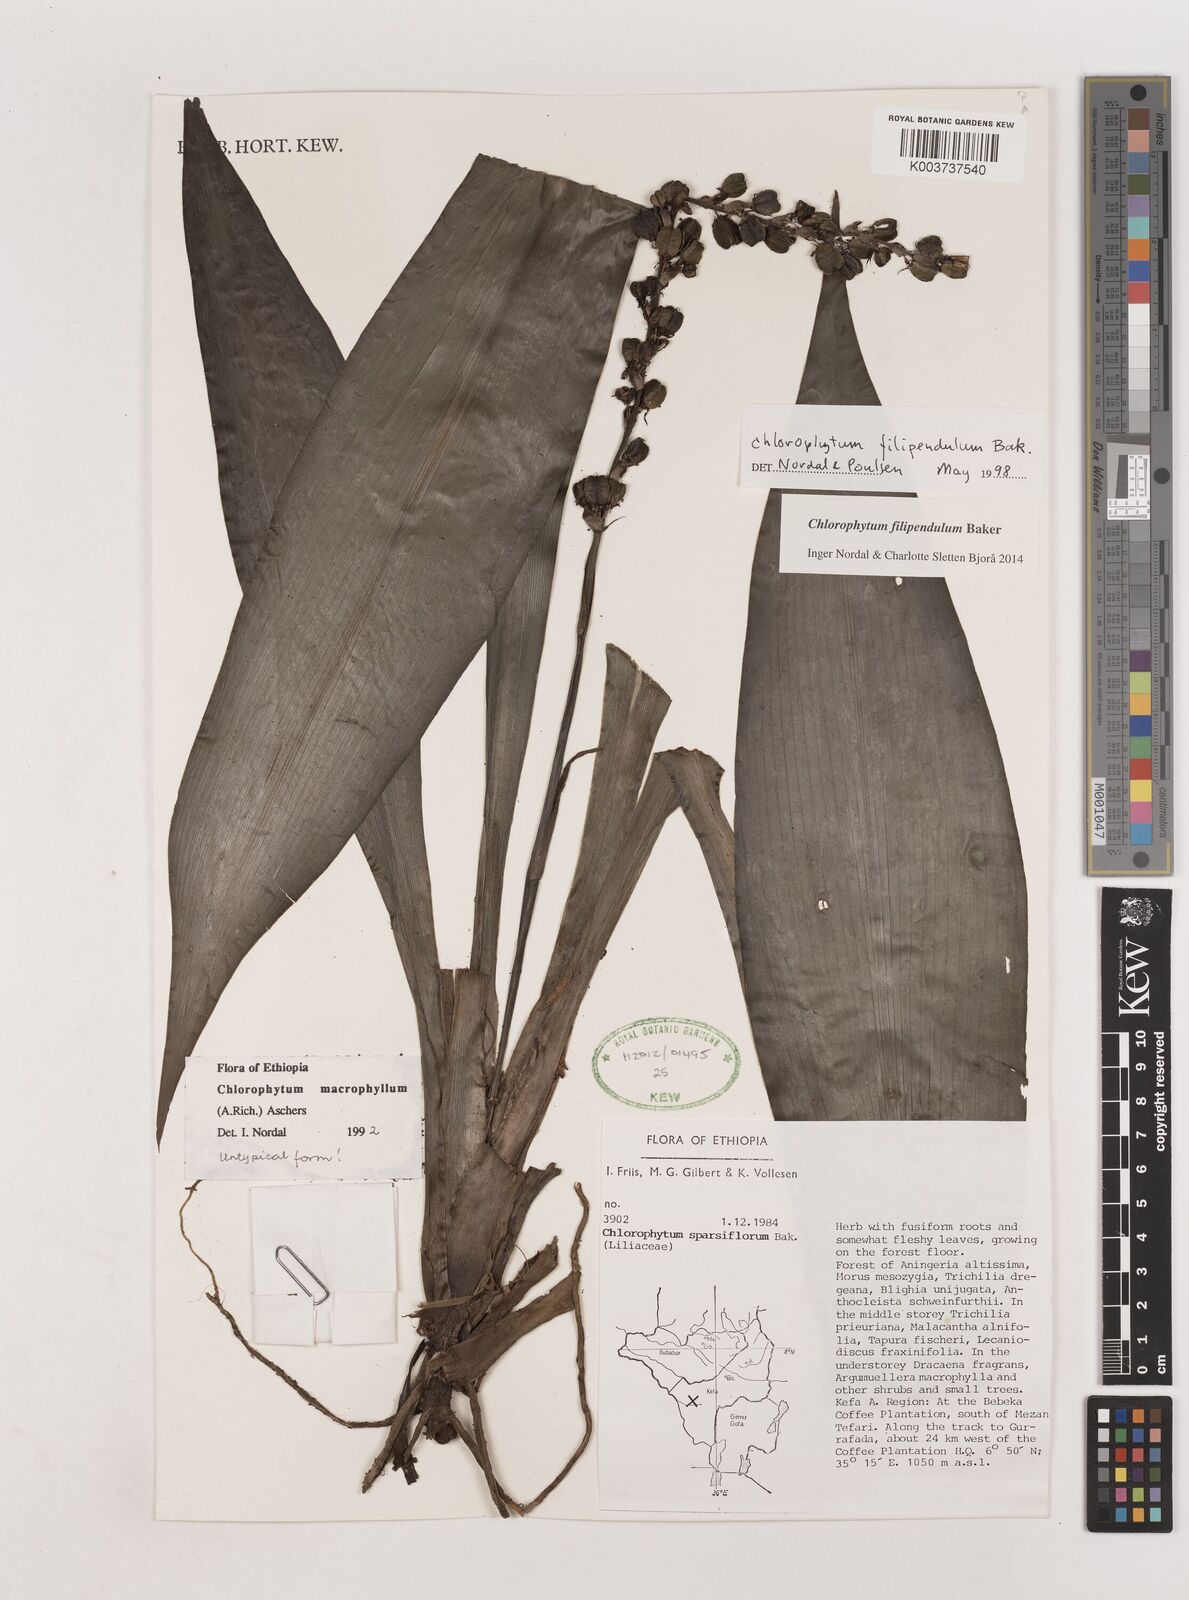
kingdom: Plantae
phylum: Tracheophyta
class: Liliopsida
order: Asparagales
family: Asparagaceae
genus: Chlorophytum
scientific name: Chlorophytum filipendulum
